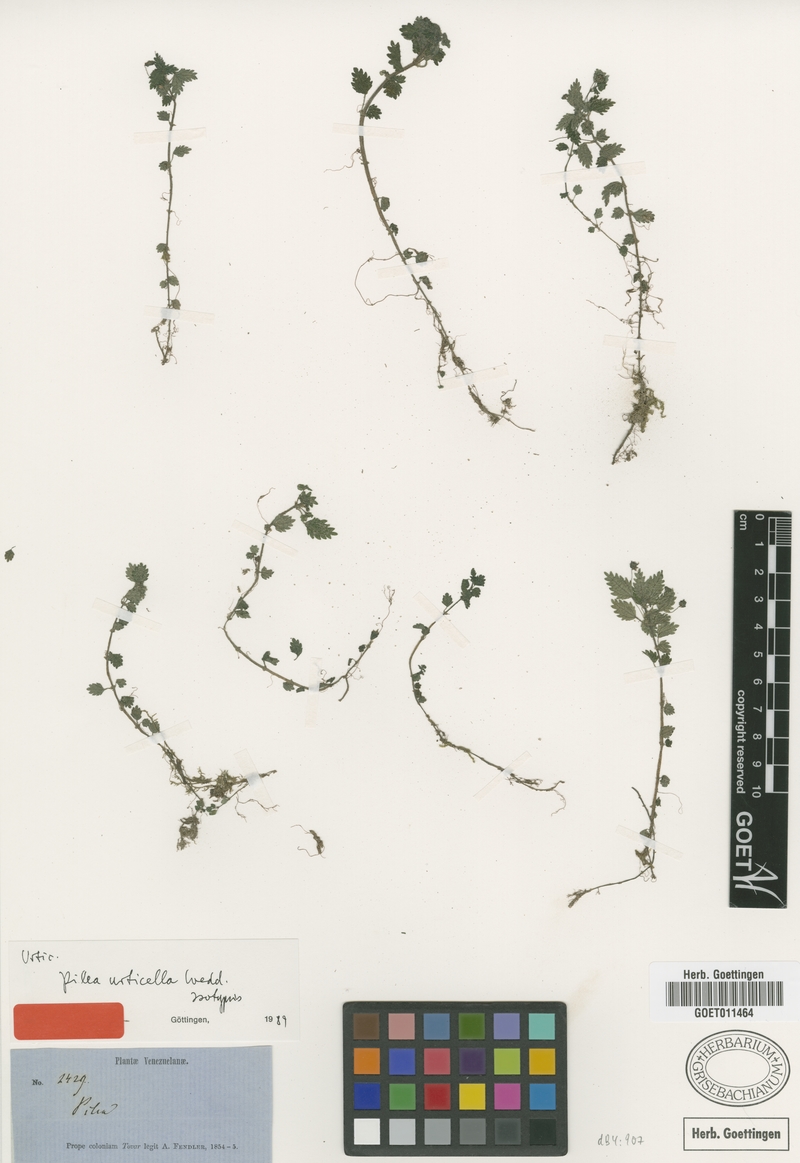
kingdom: Plantae
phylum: Tracheophyta
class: Magnoliopsida
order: Rosales
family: Urticaceae
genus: Pilea
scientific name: Pilea urticella
